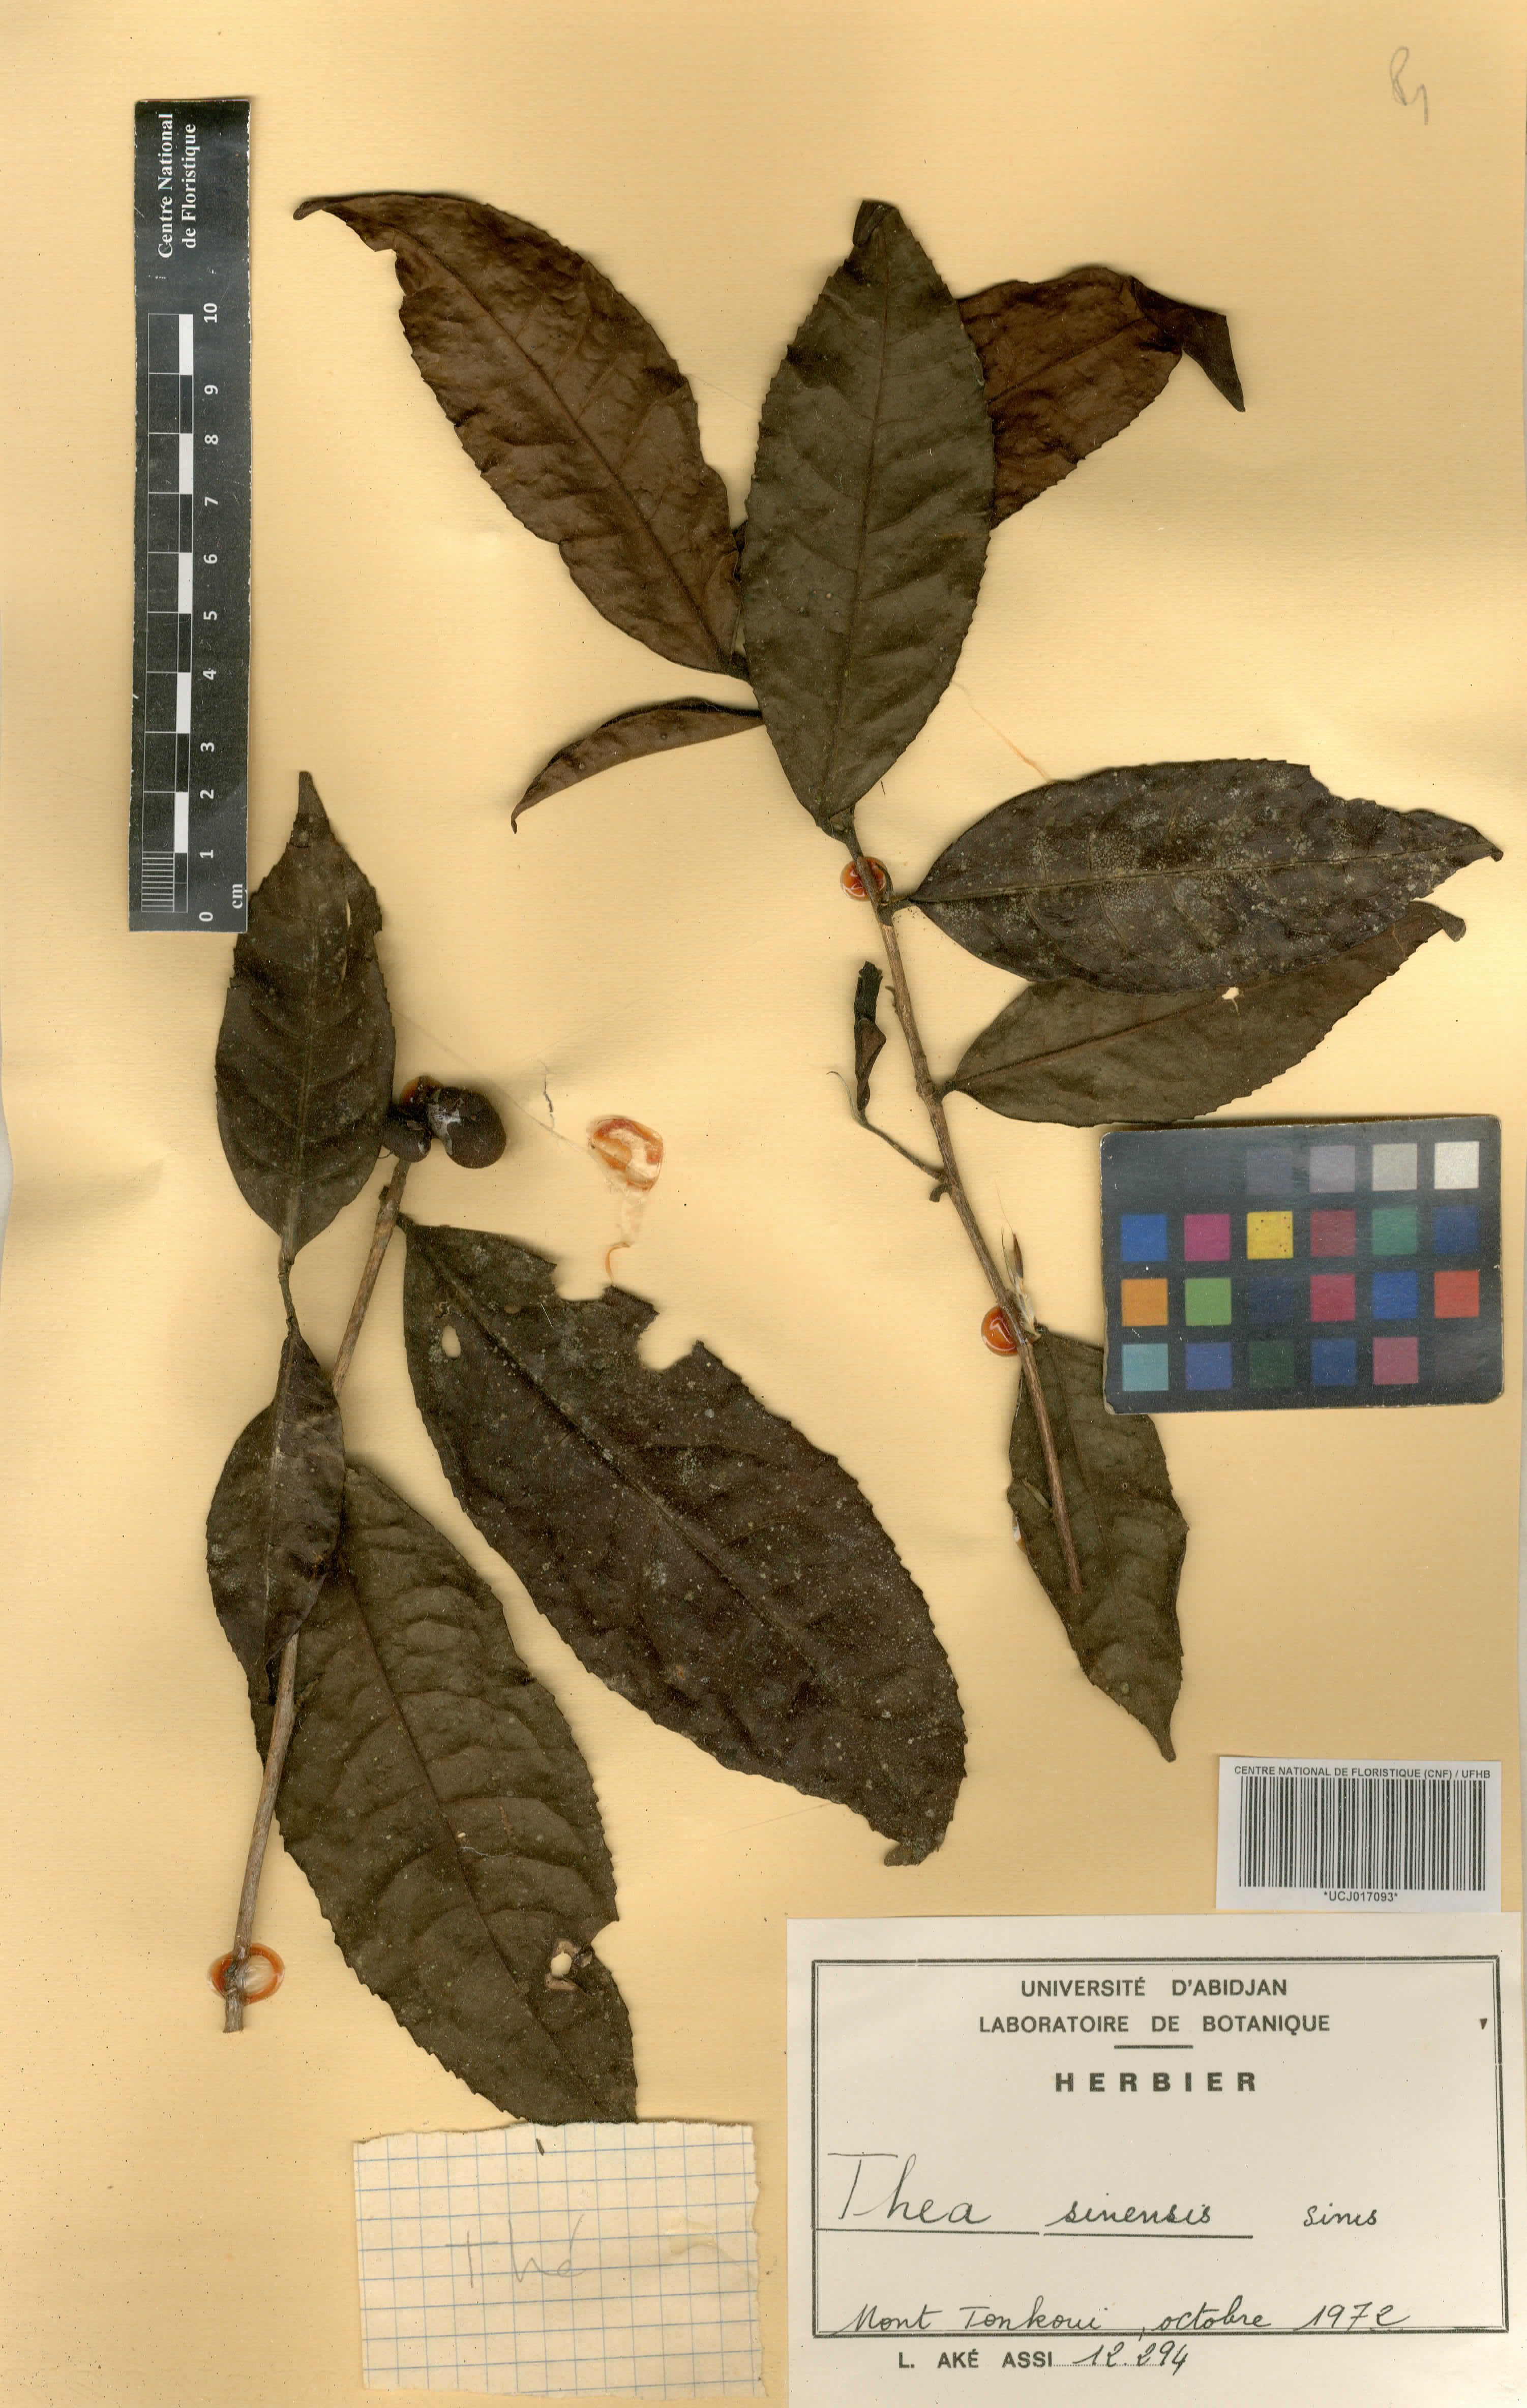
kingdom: Plantae
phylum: Tracheophyta
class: Magnoliopsida
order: Ericales
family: Theaceae
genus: Camellia
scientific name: Camellia sinensis
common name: Tea
